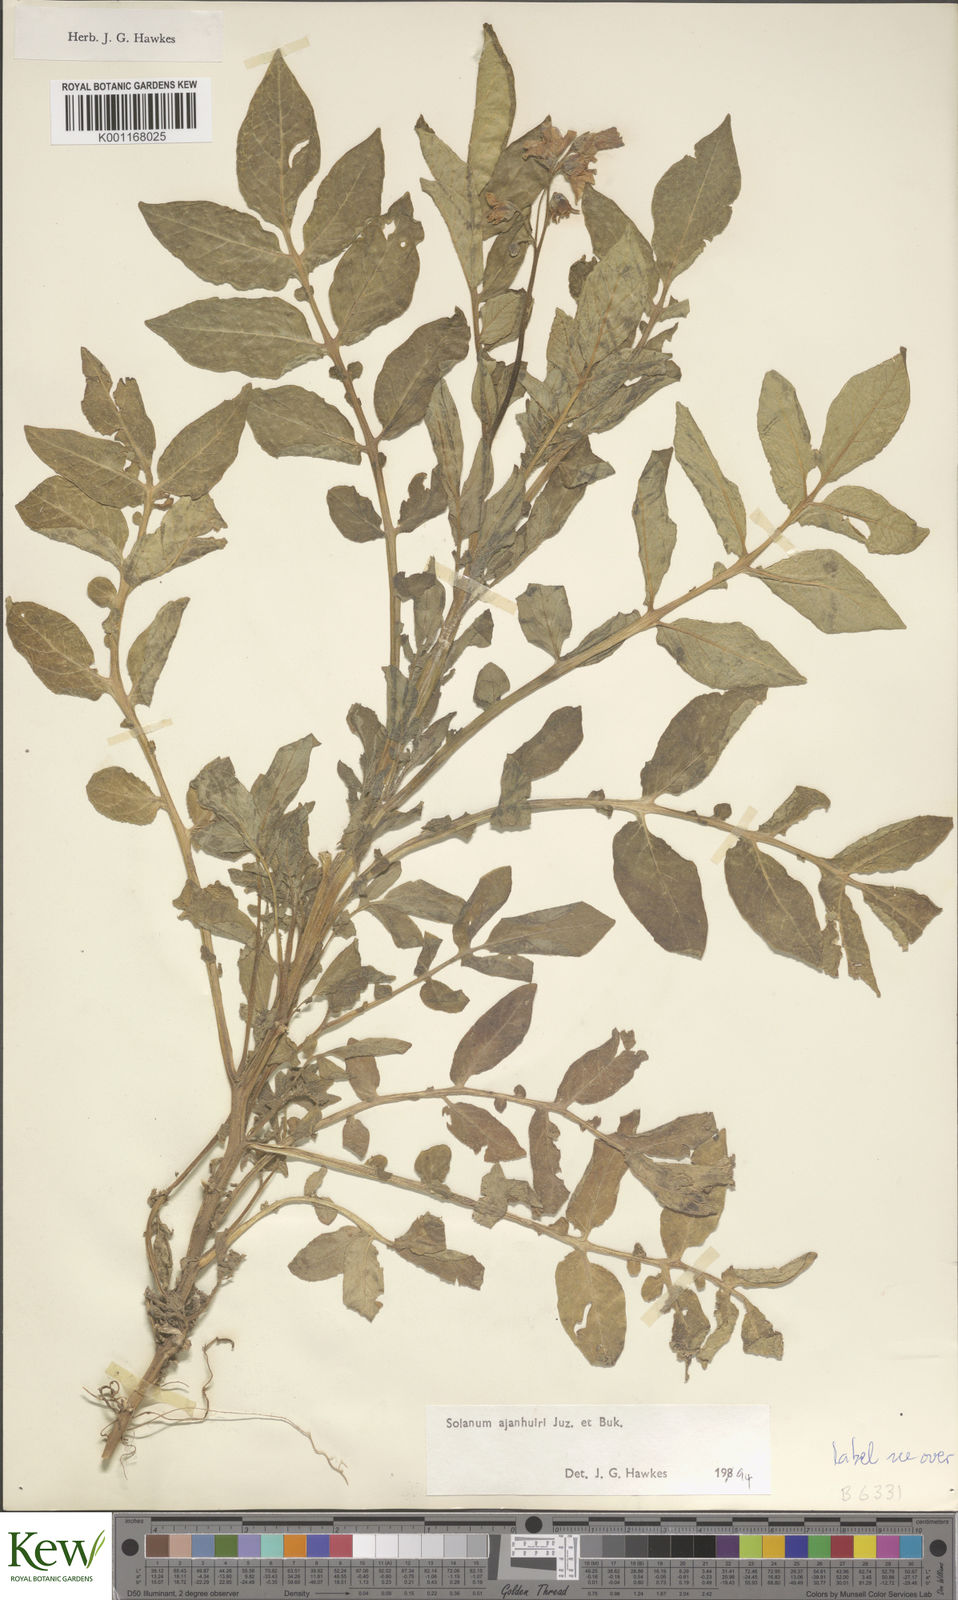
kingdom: Plantae
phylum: Tracheophyta
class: Magnoliopsida
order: Solanales
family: Solanaceae
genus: Solanum
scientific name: Solanum ajanhuiri
